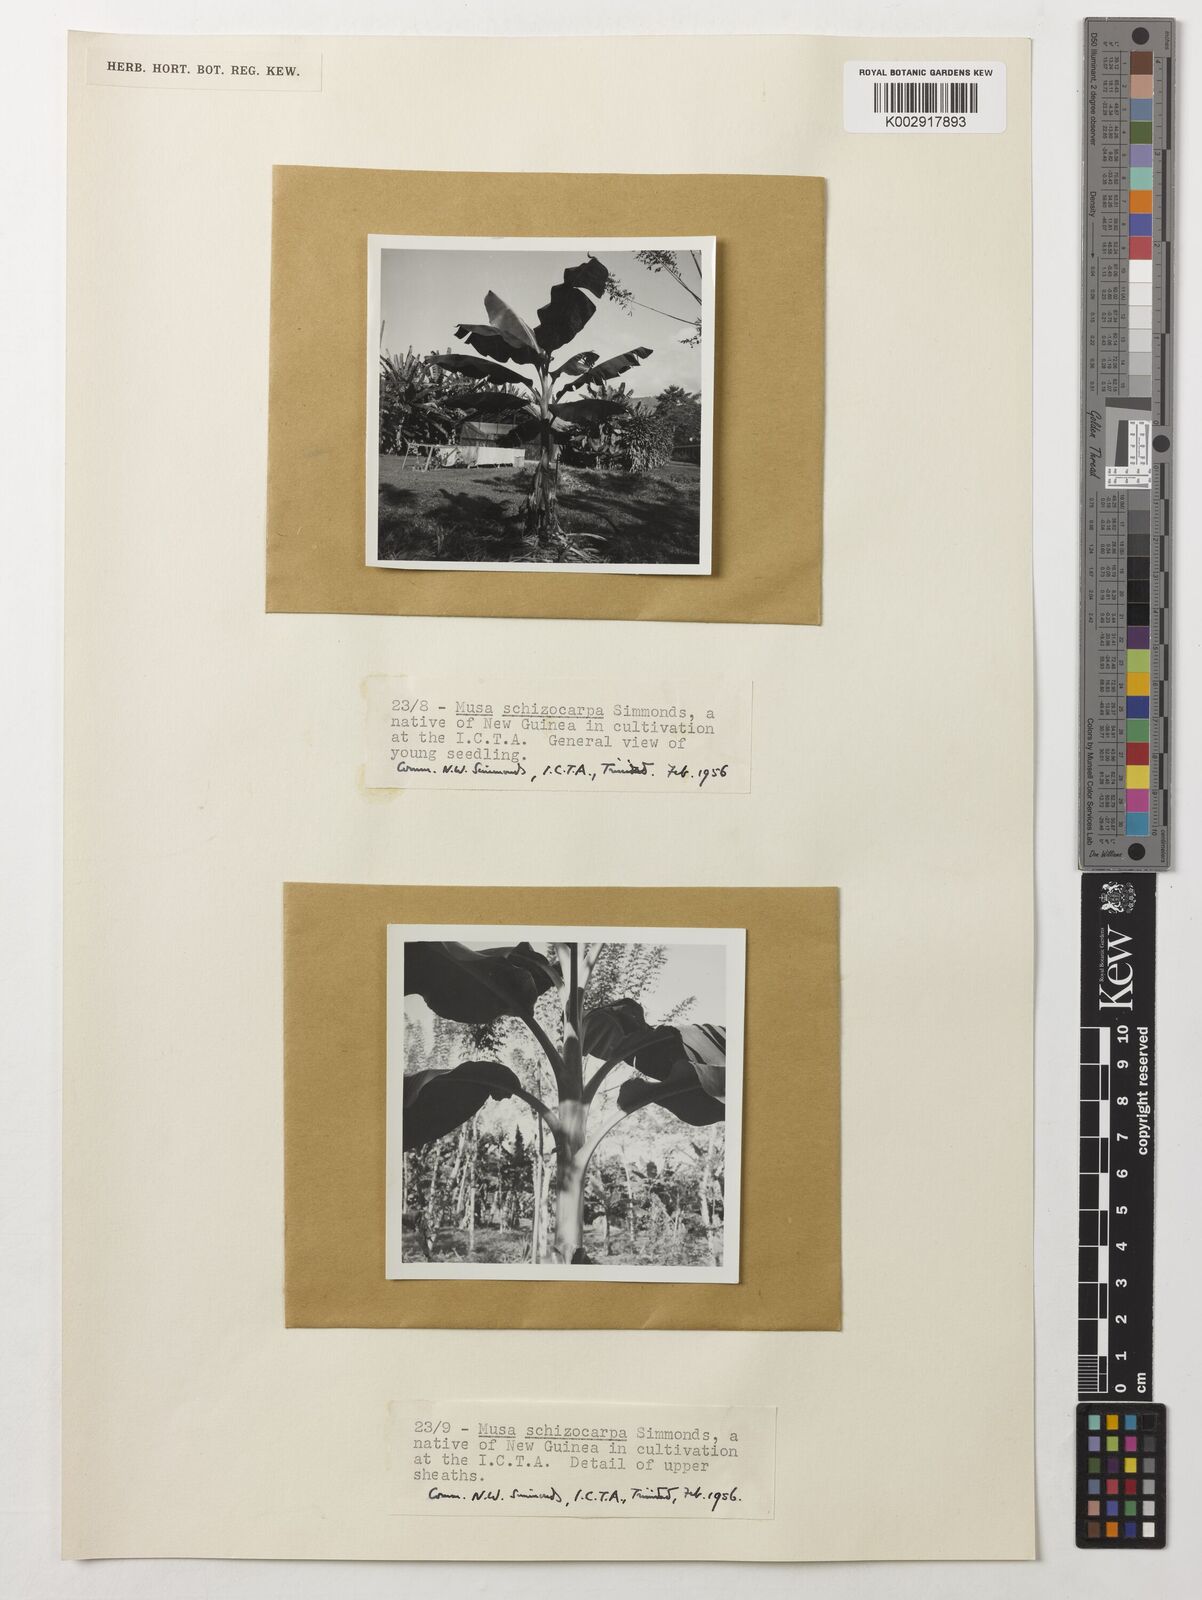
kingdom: Plantae
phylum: Tracheophyta
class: Liliopsida
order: Zingiberales
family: Musaceae
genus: Musa
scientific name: Musa schizocarpa
